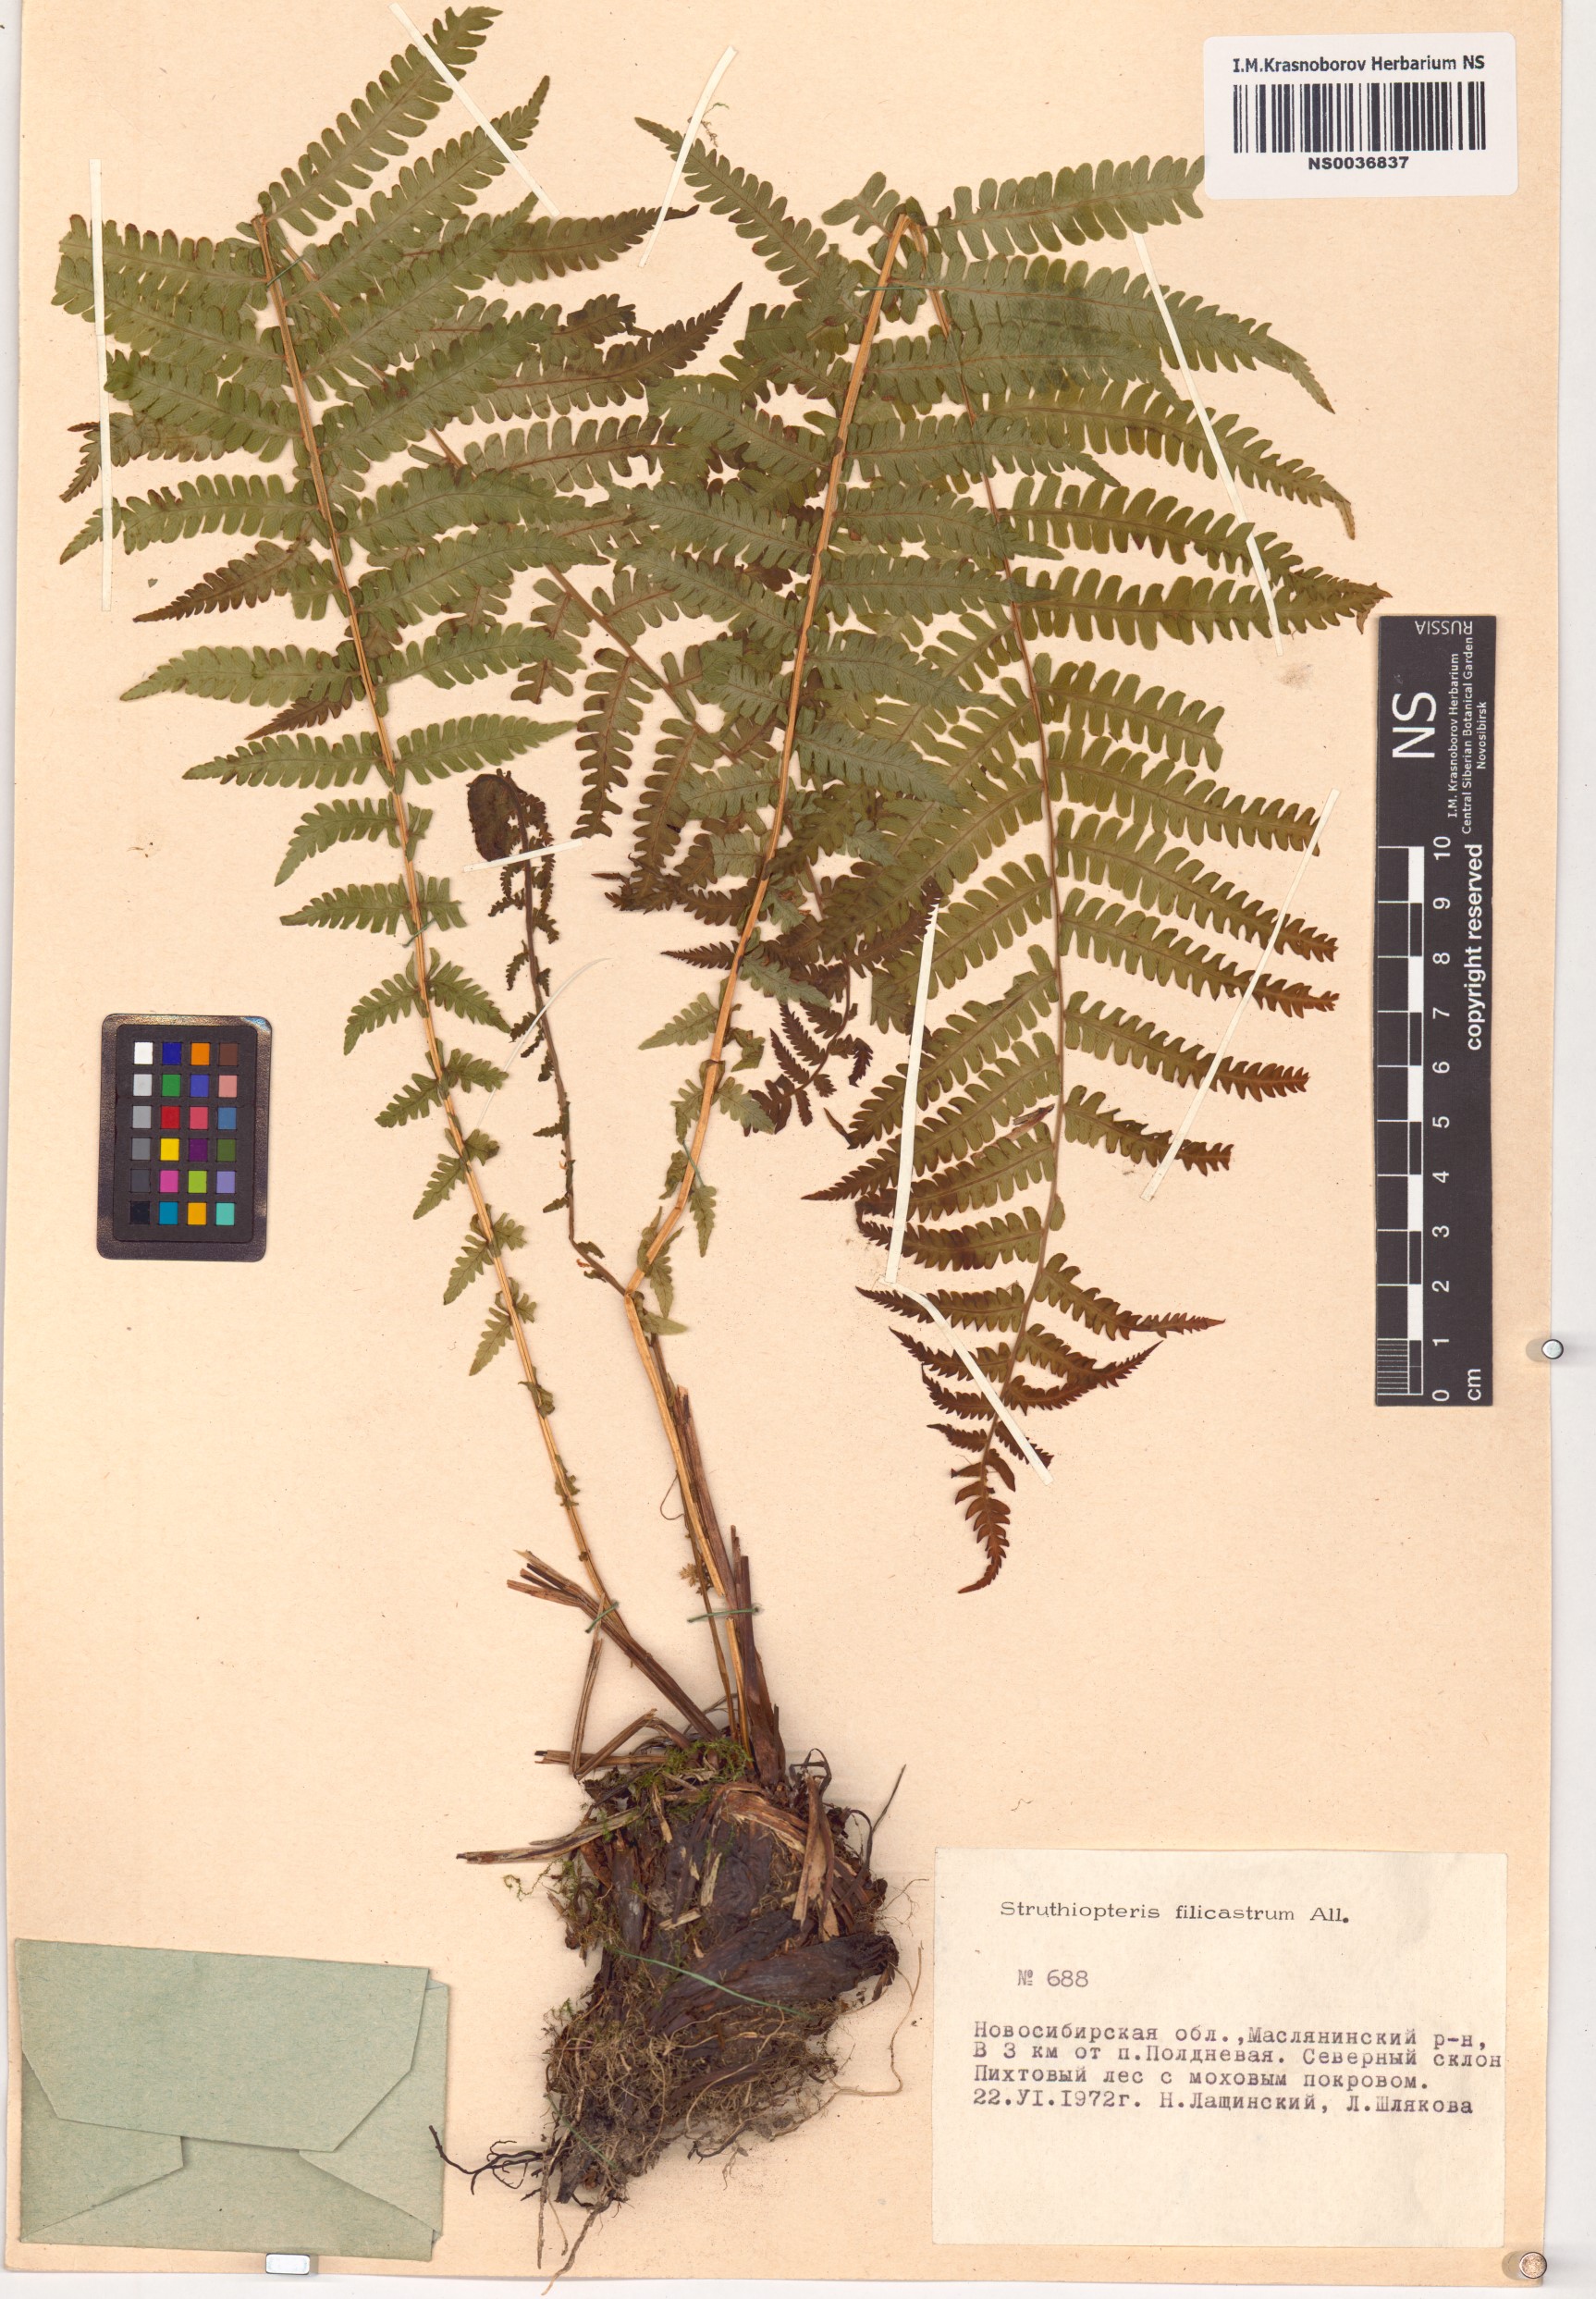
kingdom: Plantae
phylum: Tracheophyta
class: Polypodiopsida
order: Polypodiales
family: Onocleaceae
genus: Matteuccia
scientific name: Matteuccia struthiopteris
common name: Ostrich fern
